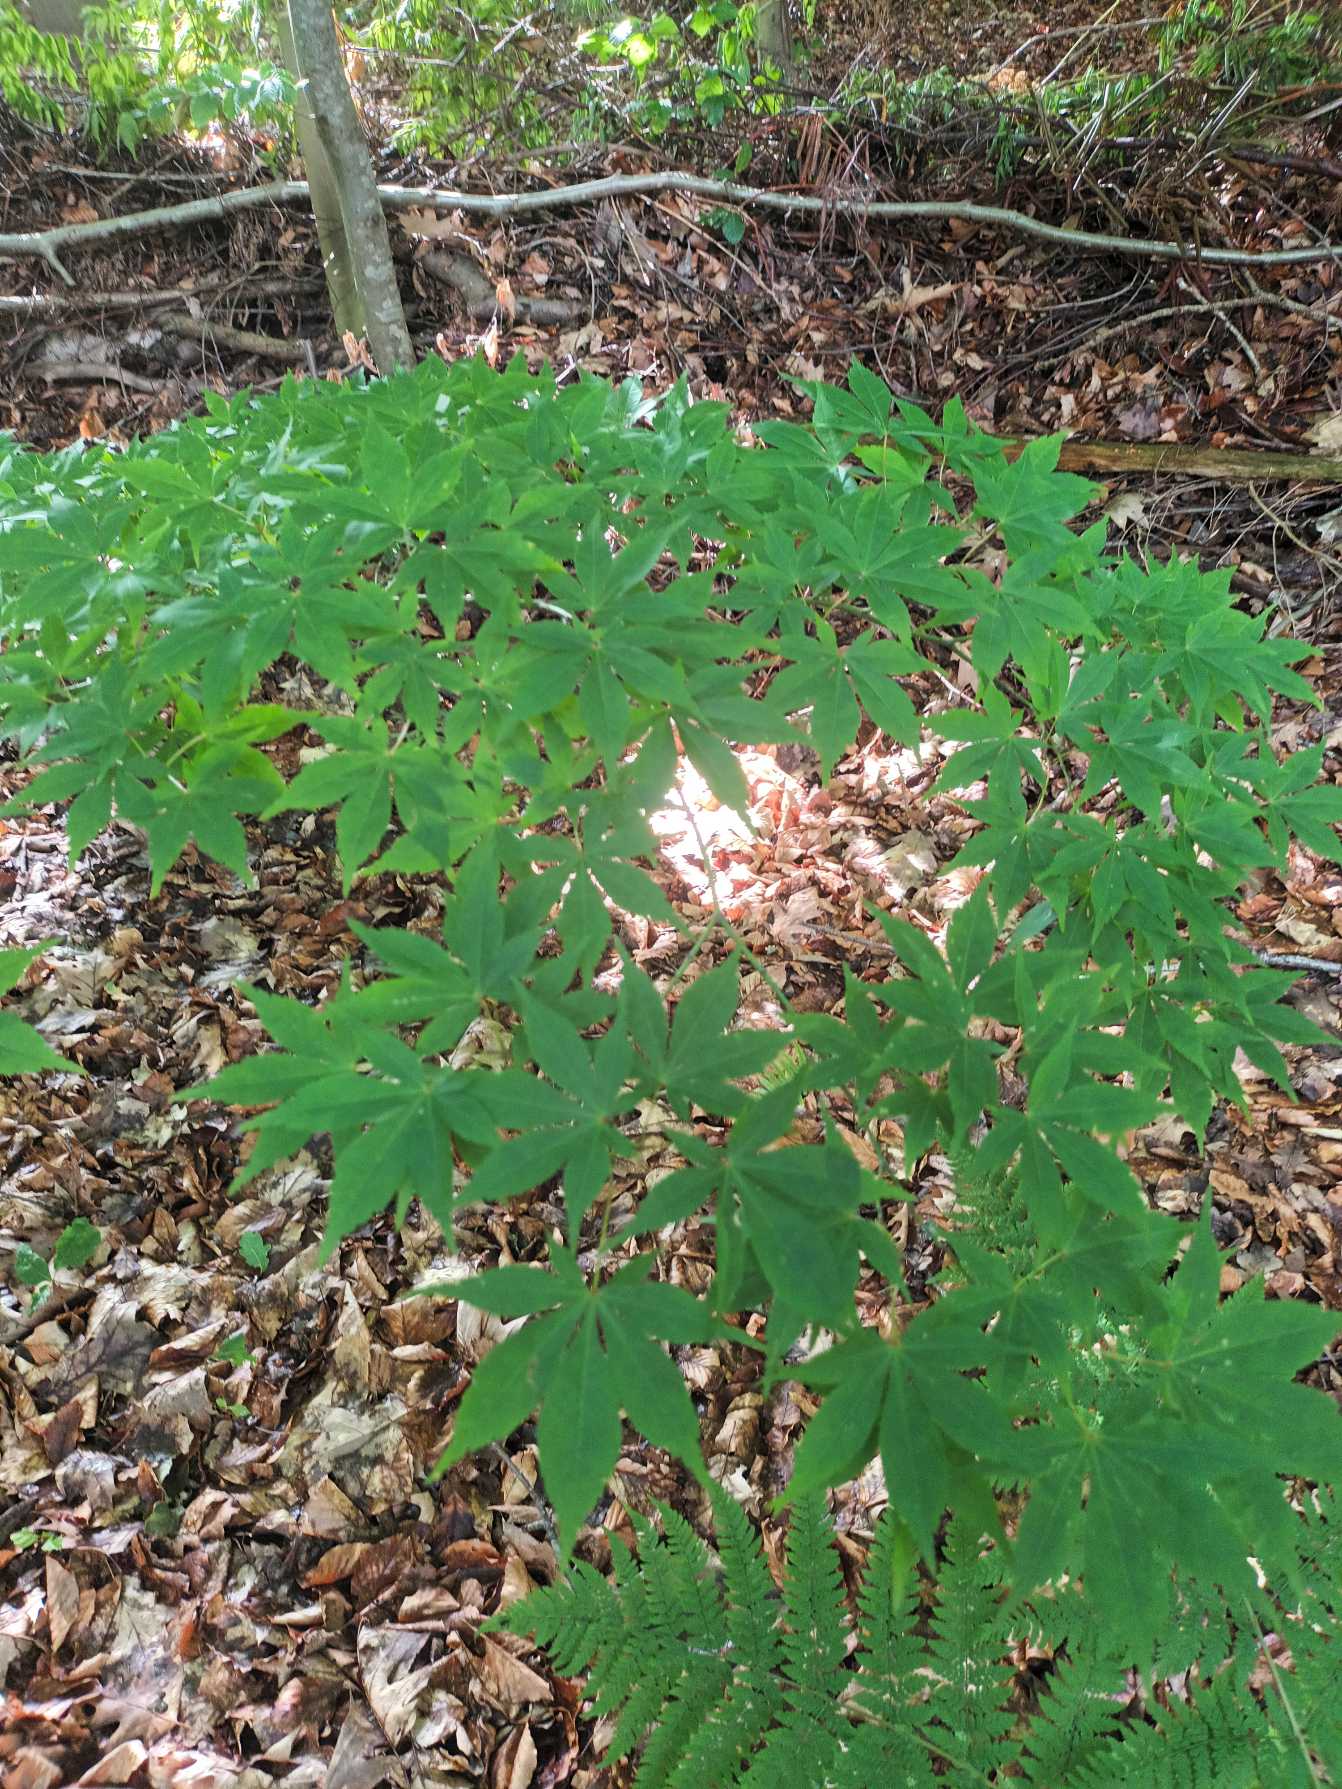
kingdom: Plantae
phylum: Tracheophyta
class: Magnoliopsida
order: Sapindales
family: Sapindaceae
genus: Acer
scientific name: Acer palmatum
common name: Japansk løn
